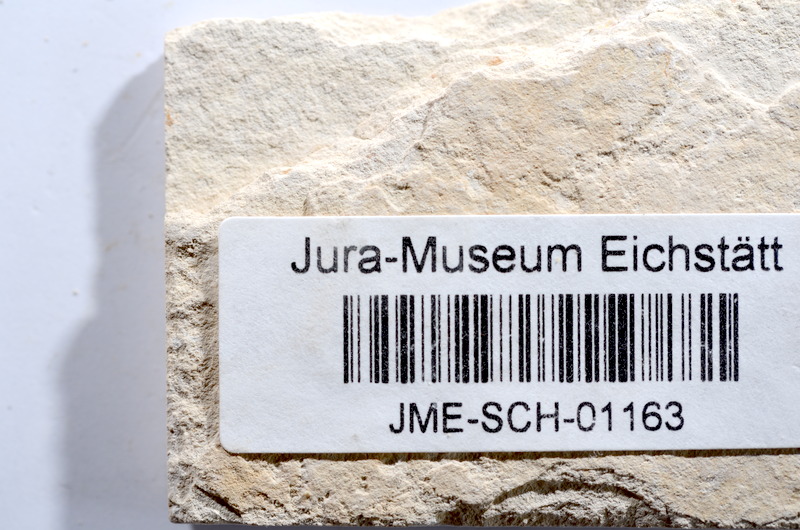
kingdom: Animalia
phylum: Chordata
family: Ascalaboidae
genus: Tharsis
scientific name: Tharsis dubius
